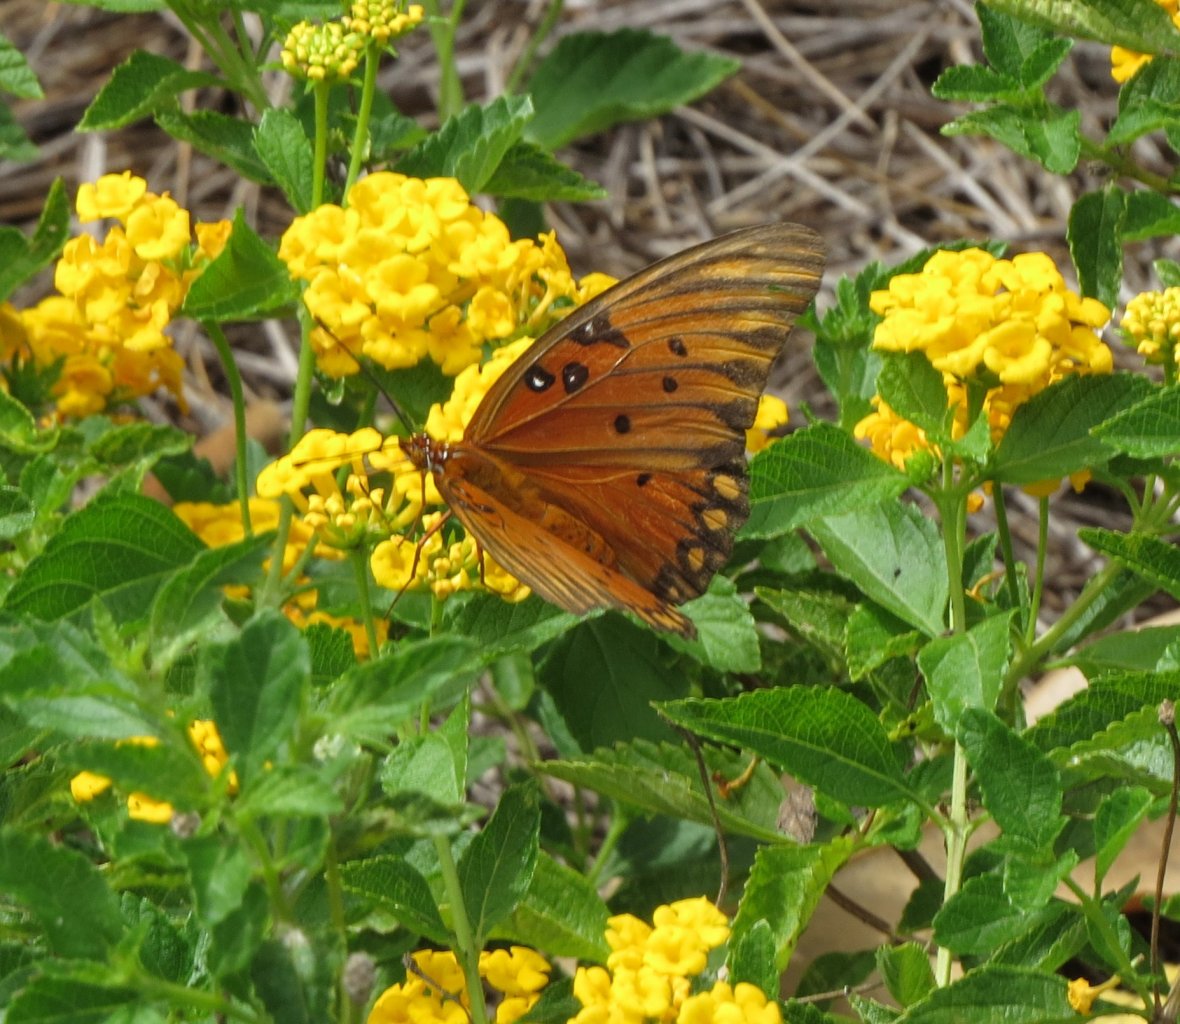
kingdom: Animalia
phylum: Arthropoda
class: Insecta
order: Lepidoptera
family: Nymphalidae
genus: Dione
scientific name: Dione vanillae
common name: Gulf Fritillary
